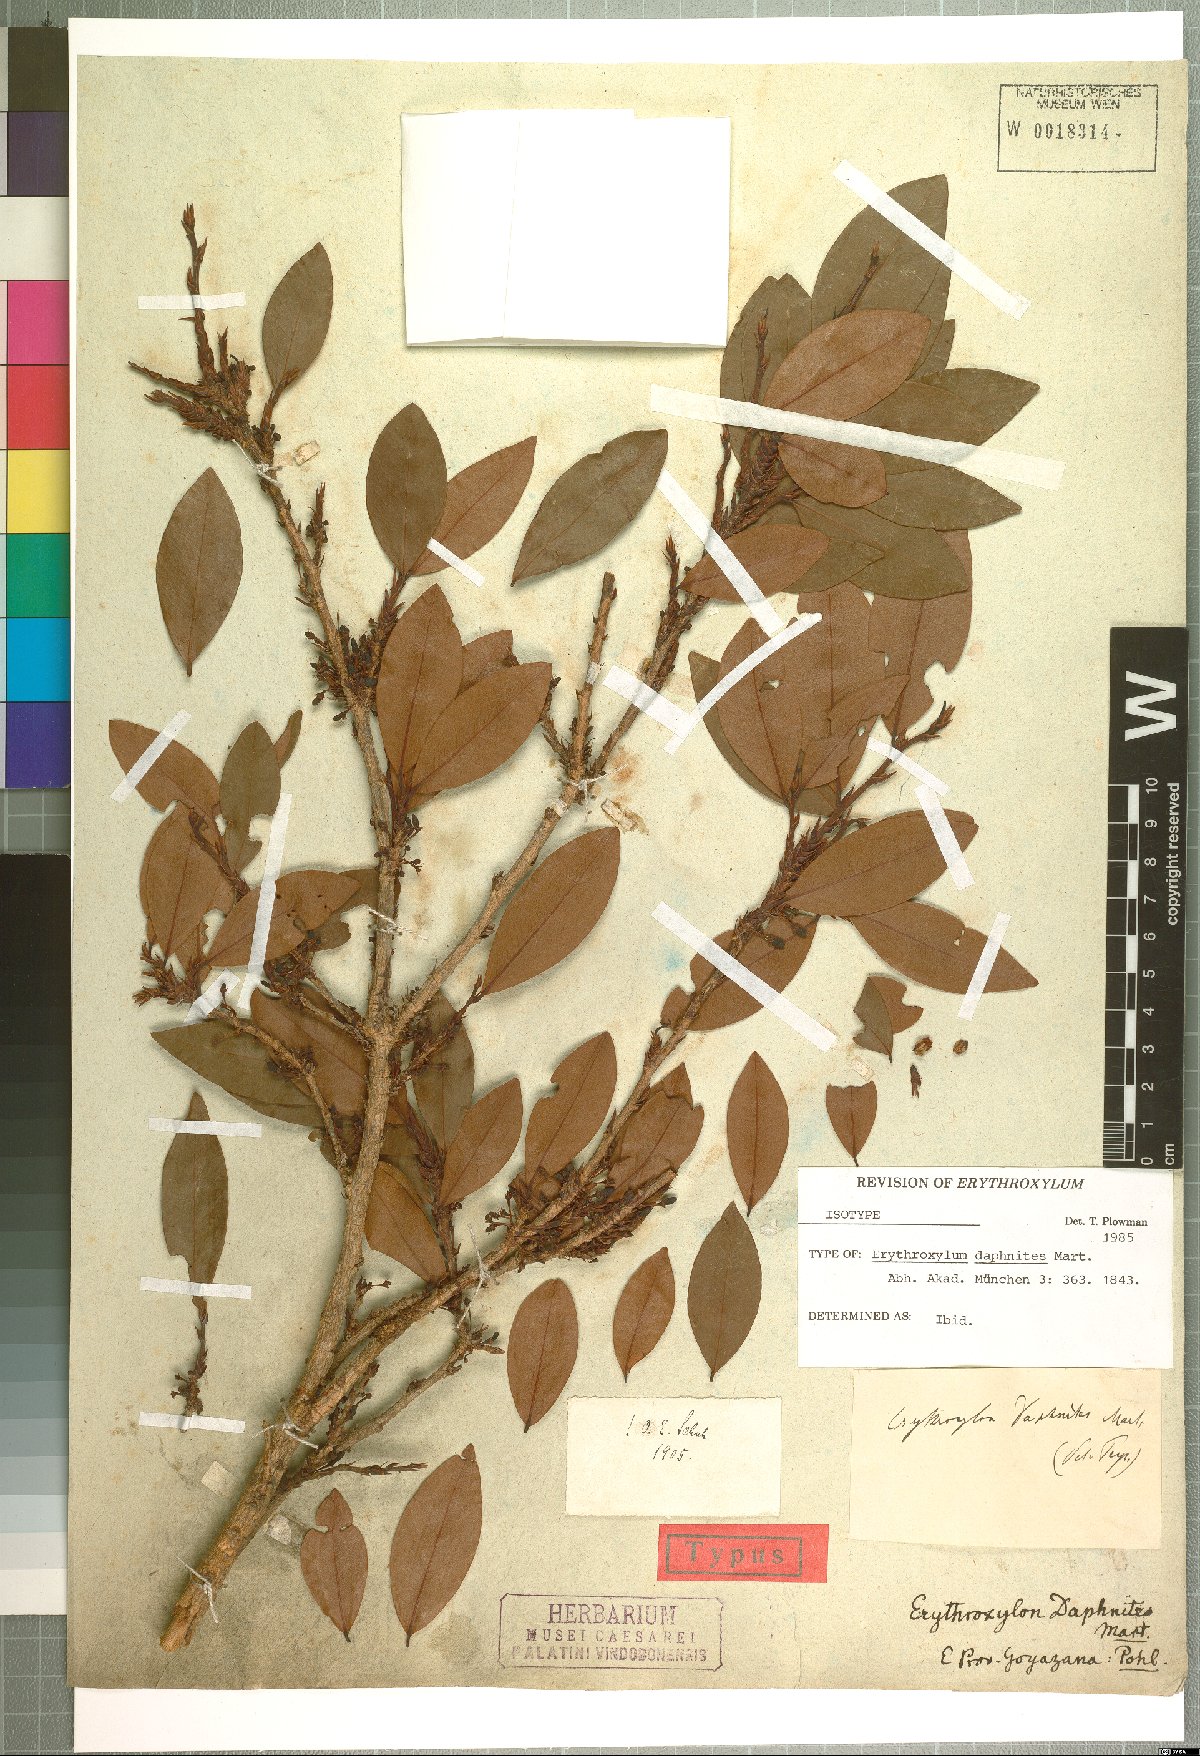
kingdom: Plantae
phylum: Tracheophyta
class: Magnoliopsida
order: Malpighiales
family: Erythroxylaceae
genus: Erythroxylum
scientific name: Erythroxylum daphnites
